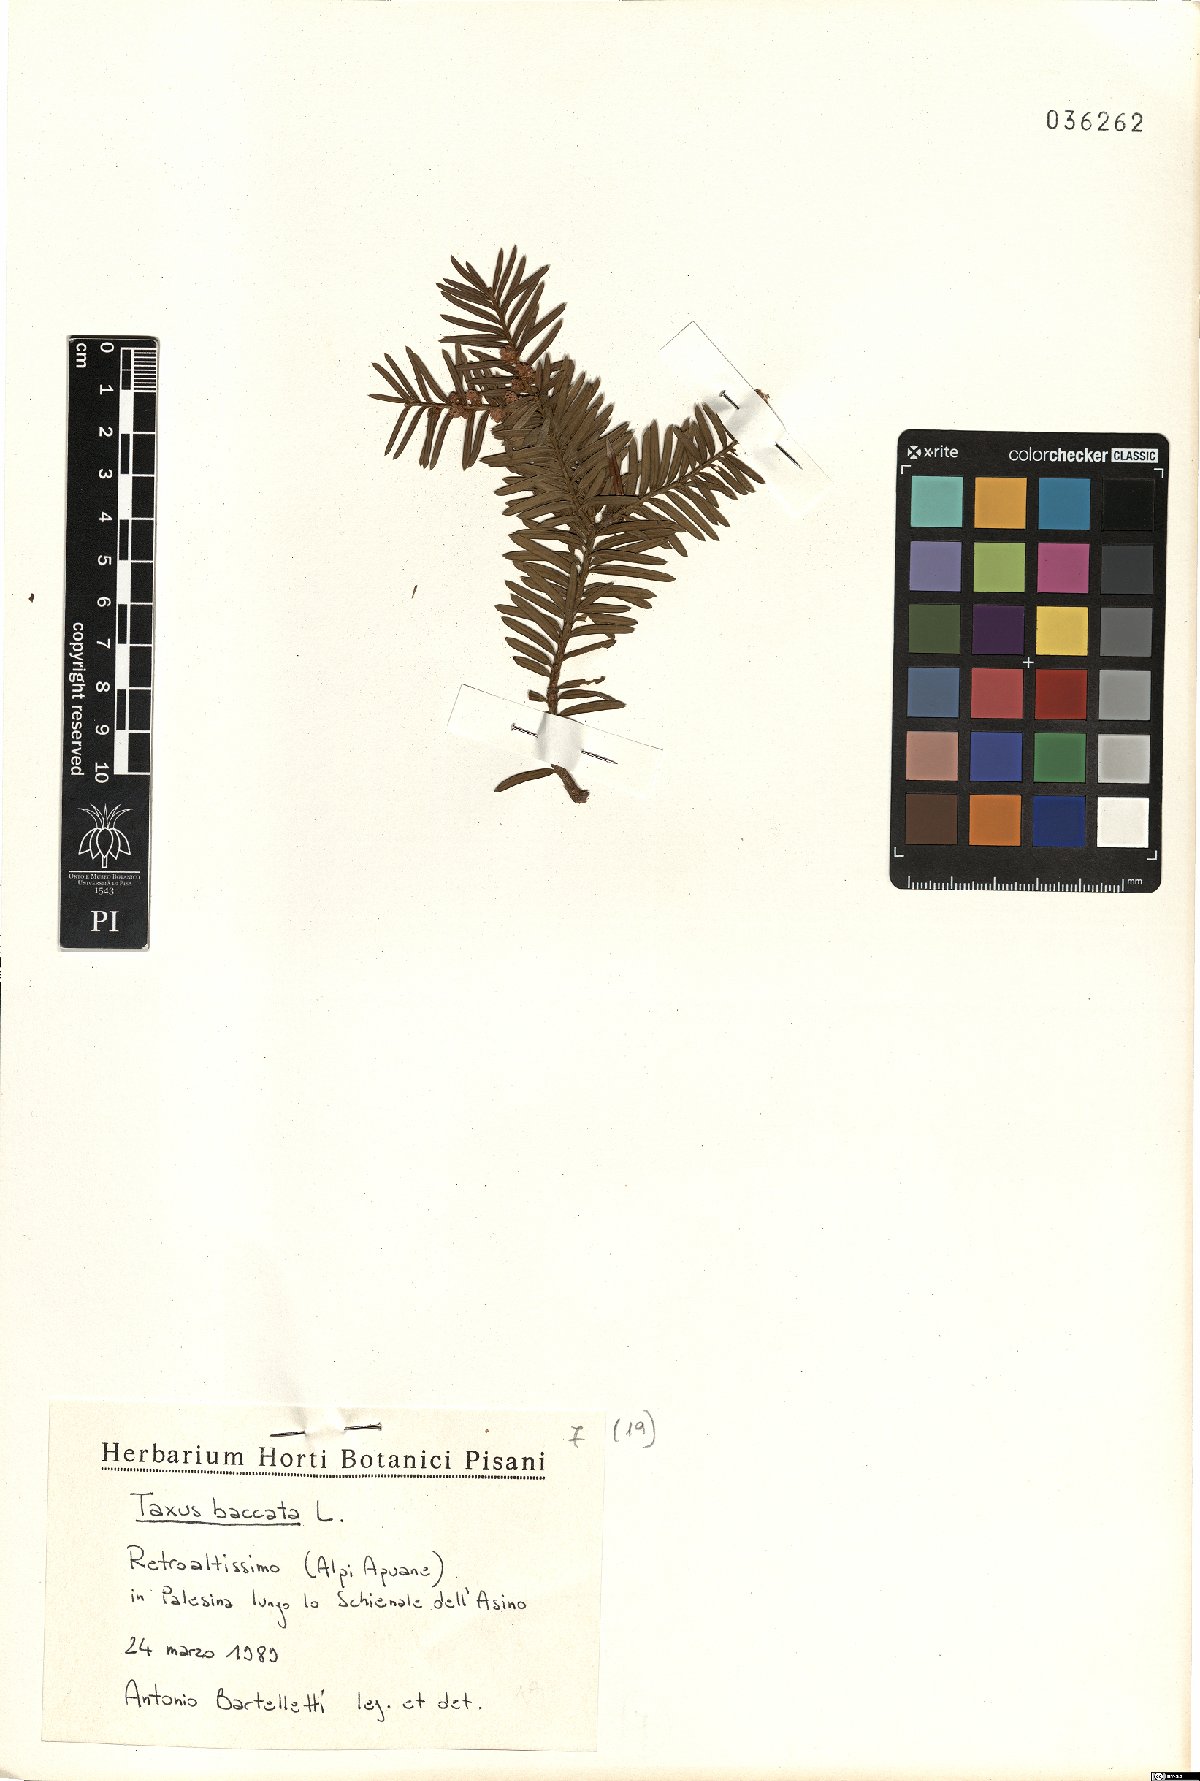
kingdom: Plantae
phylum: Tracheophyta
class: Pinopsida
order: Pinales
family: Taxaceae
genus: Taxus
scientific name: Taxus baccata
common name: Yew
